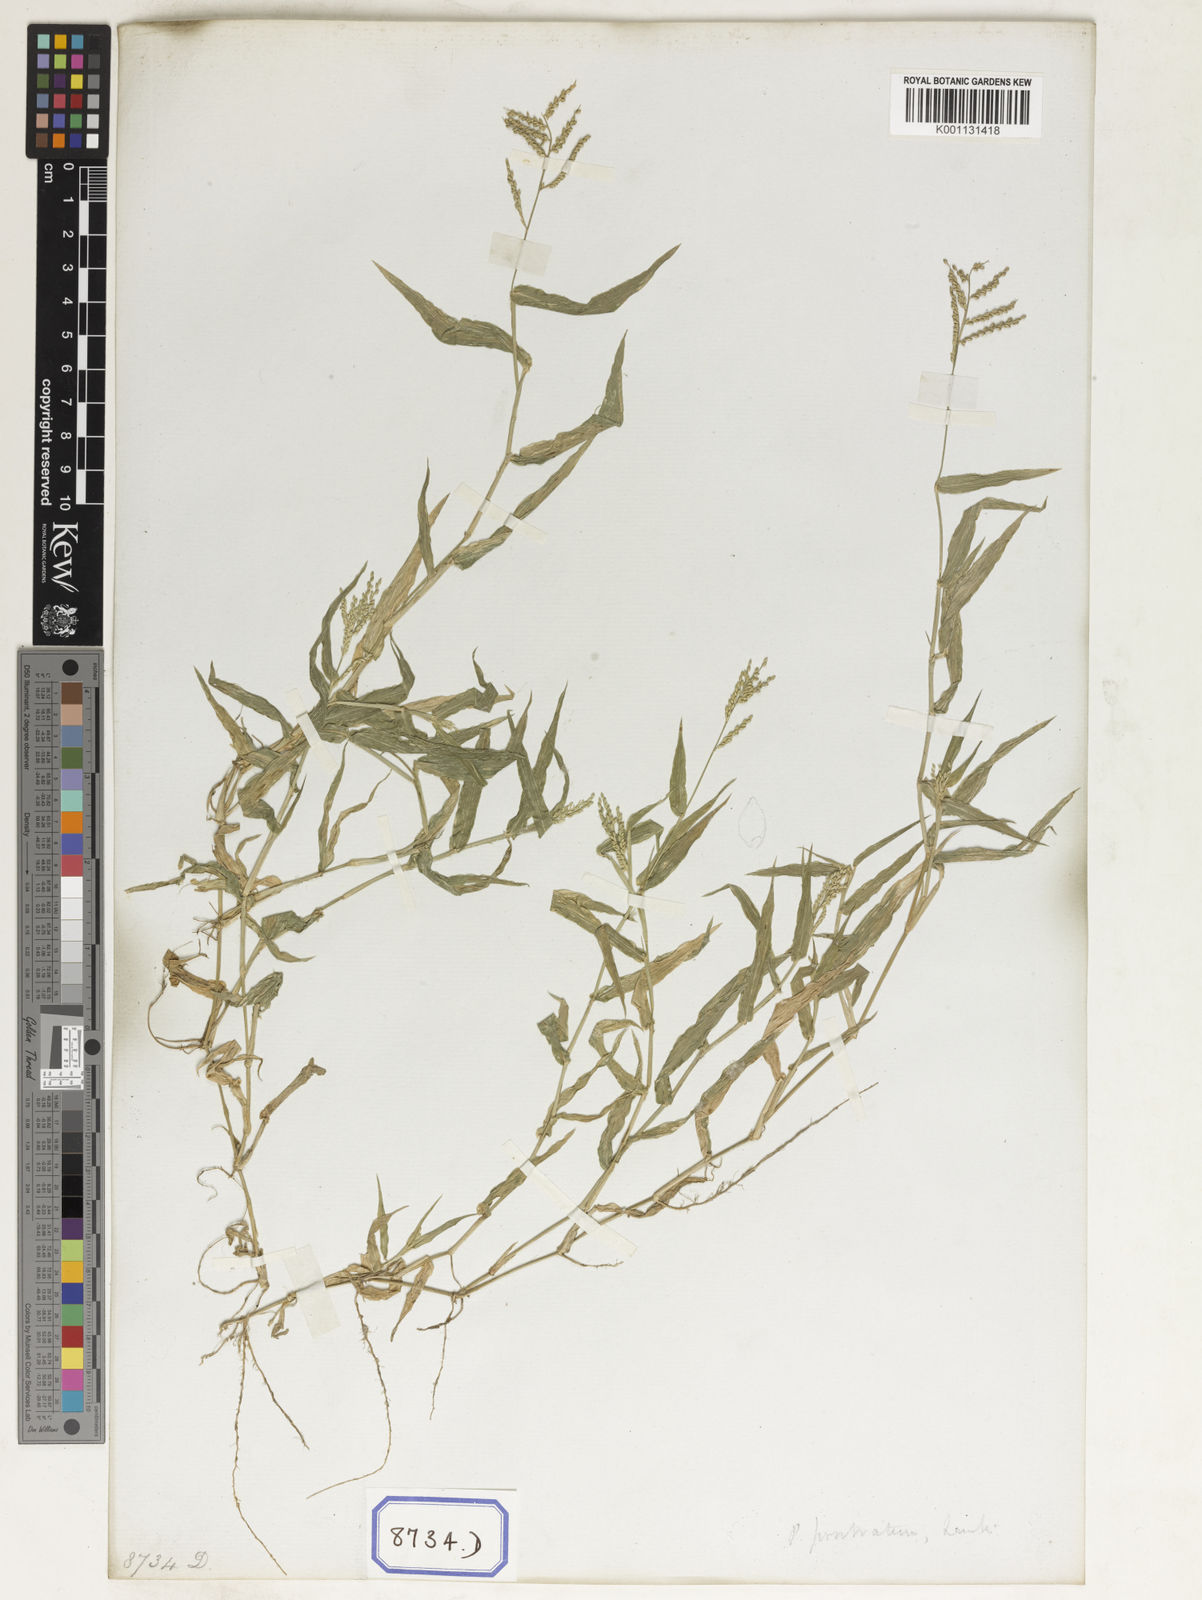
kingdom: Plantae
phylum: Tracheophyta
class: Liliopsida
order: Poales
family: Poaceae
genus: Panicum
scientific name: Panicum
